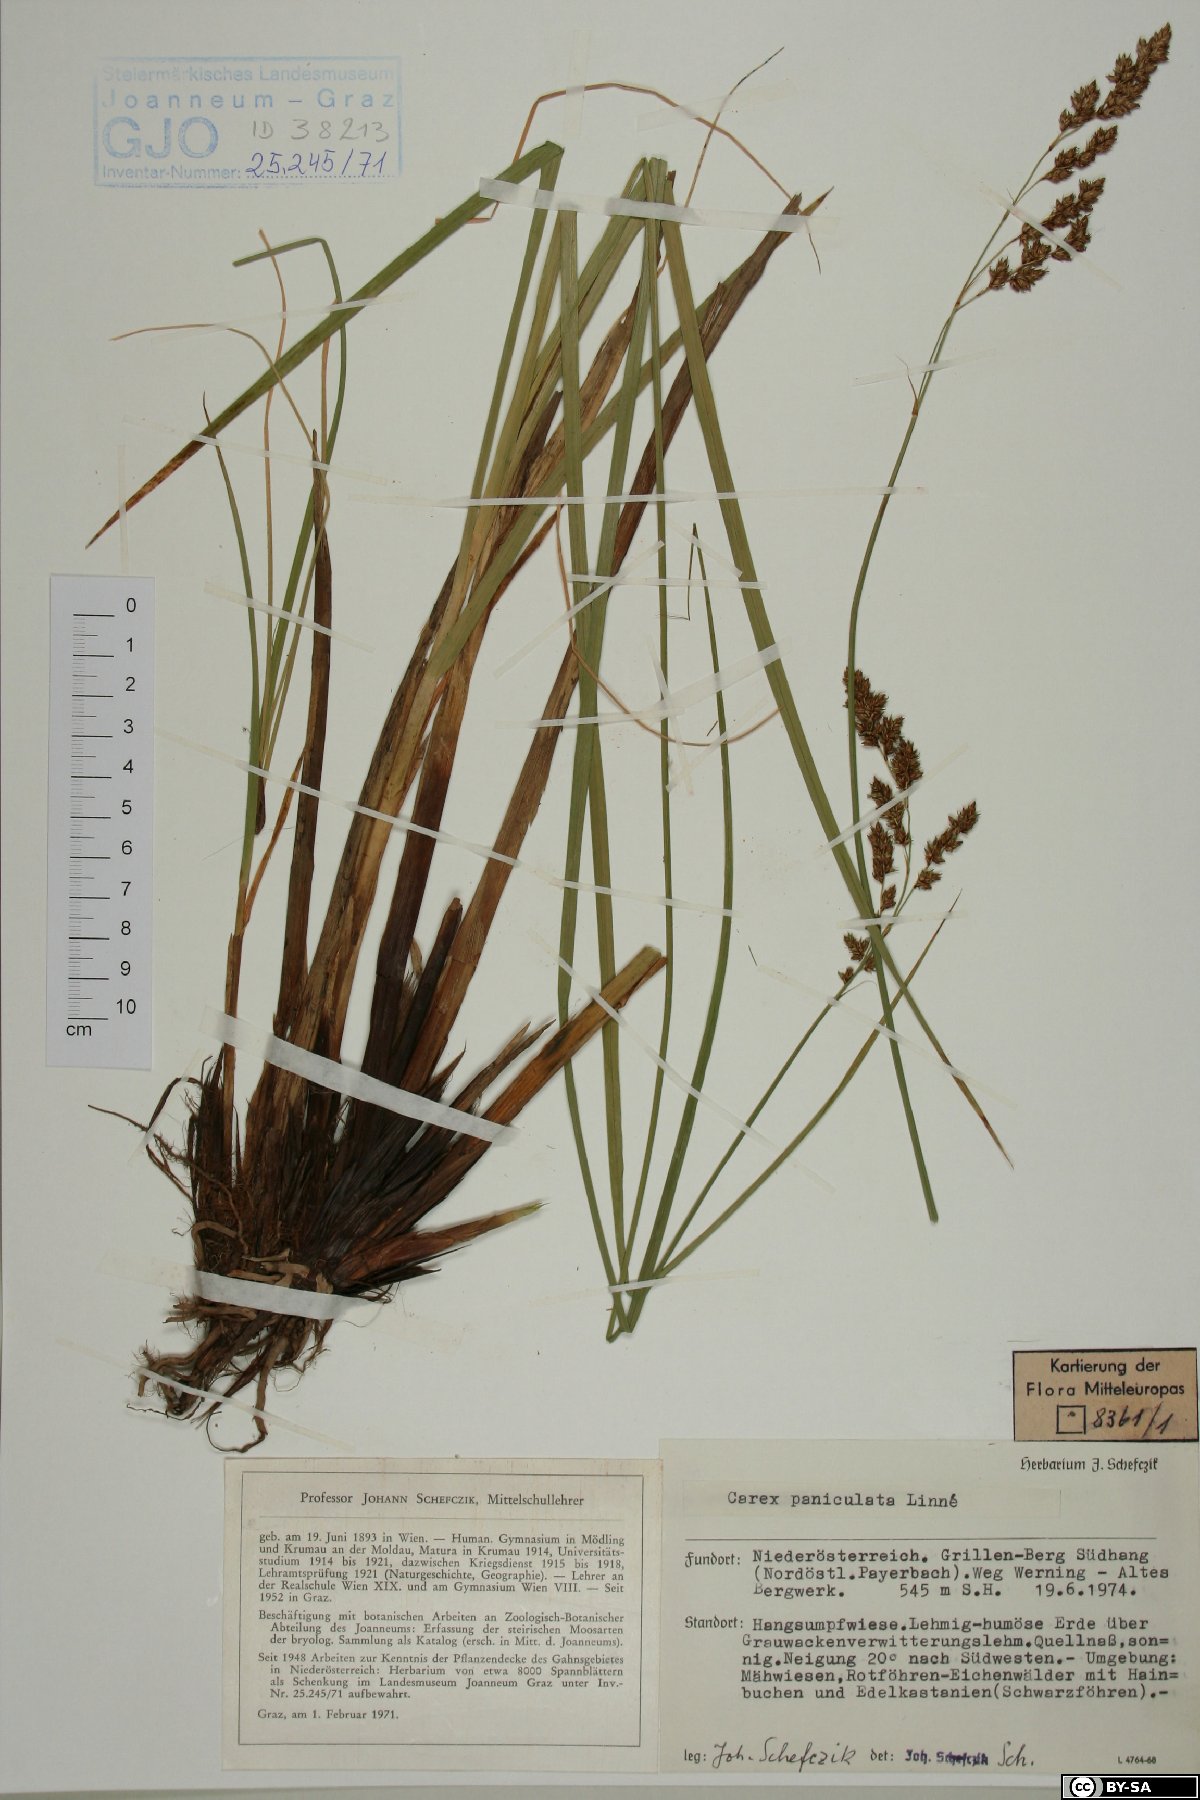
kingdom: Plantae
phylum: Tracheophyta
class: Liliopsida
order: Poales
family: Cyperaceae
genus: Carex
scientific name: Carex paniculata
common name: Greater tussock-sedge
